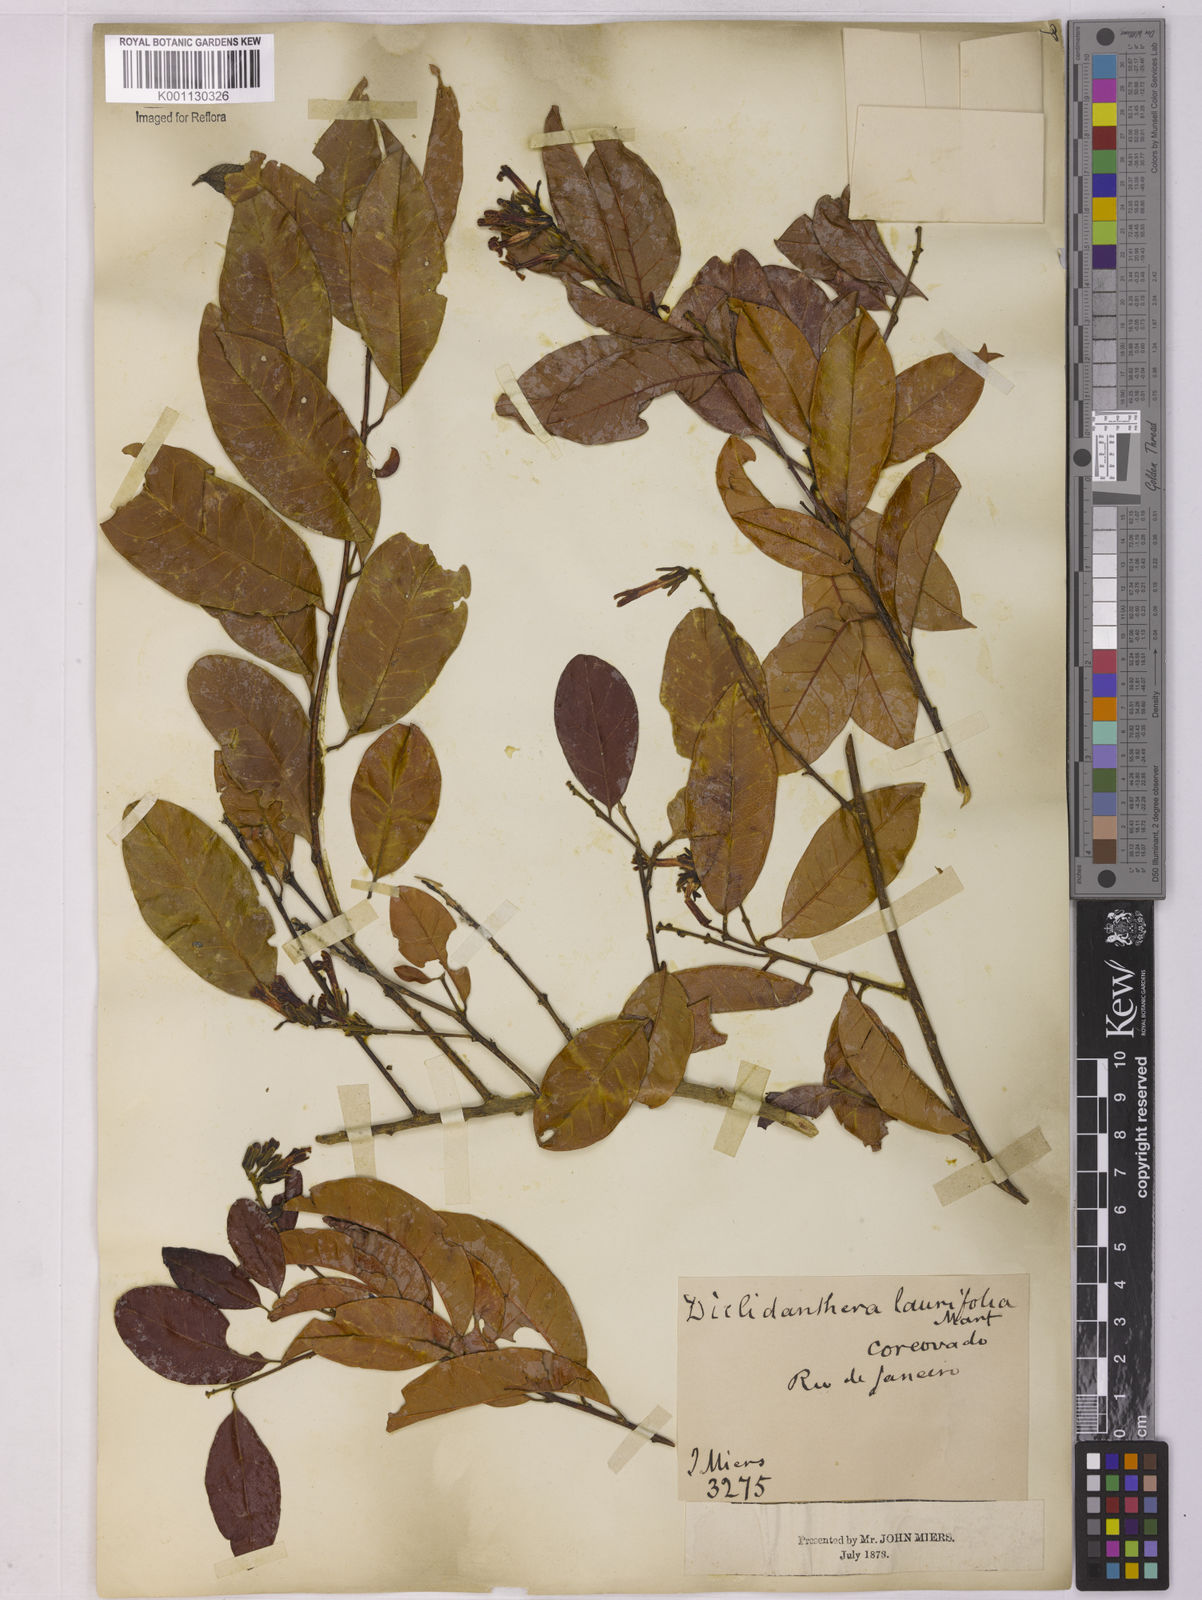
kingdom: Plantae
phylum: Tracheophyta
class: Magnoliopsida
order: Fabales
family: Polygalaceae
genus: Diclidanthera
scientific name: Diclidanthera laurifolia
